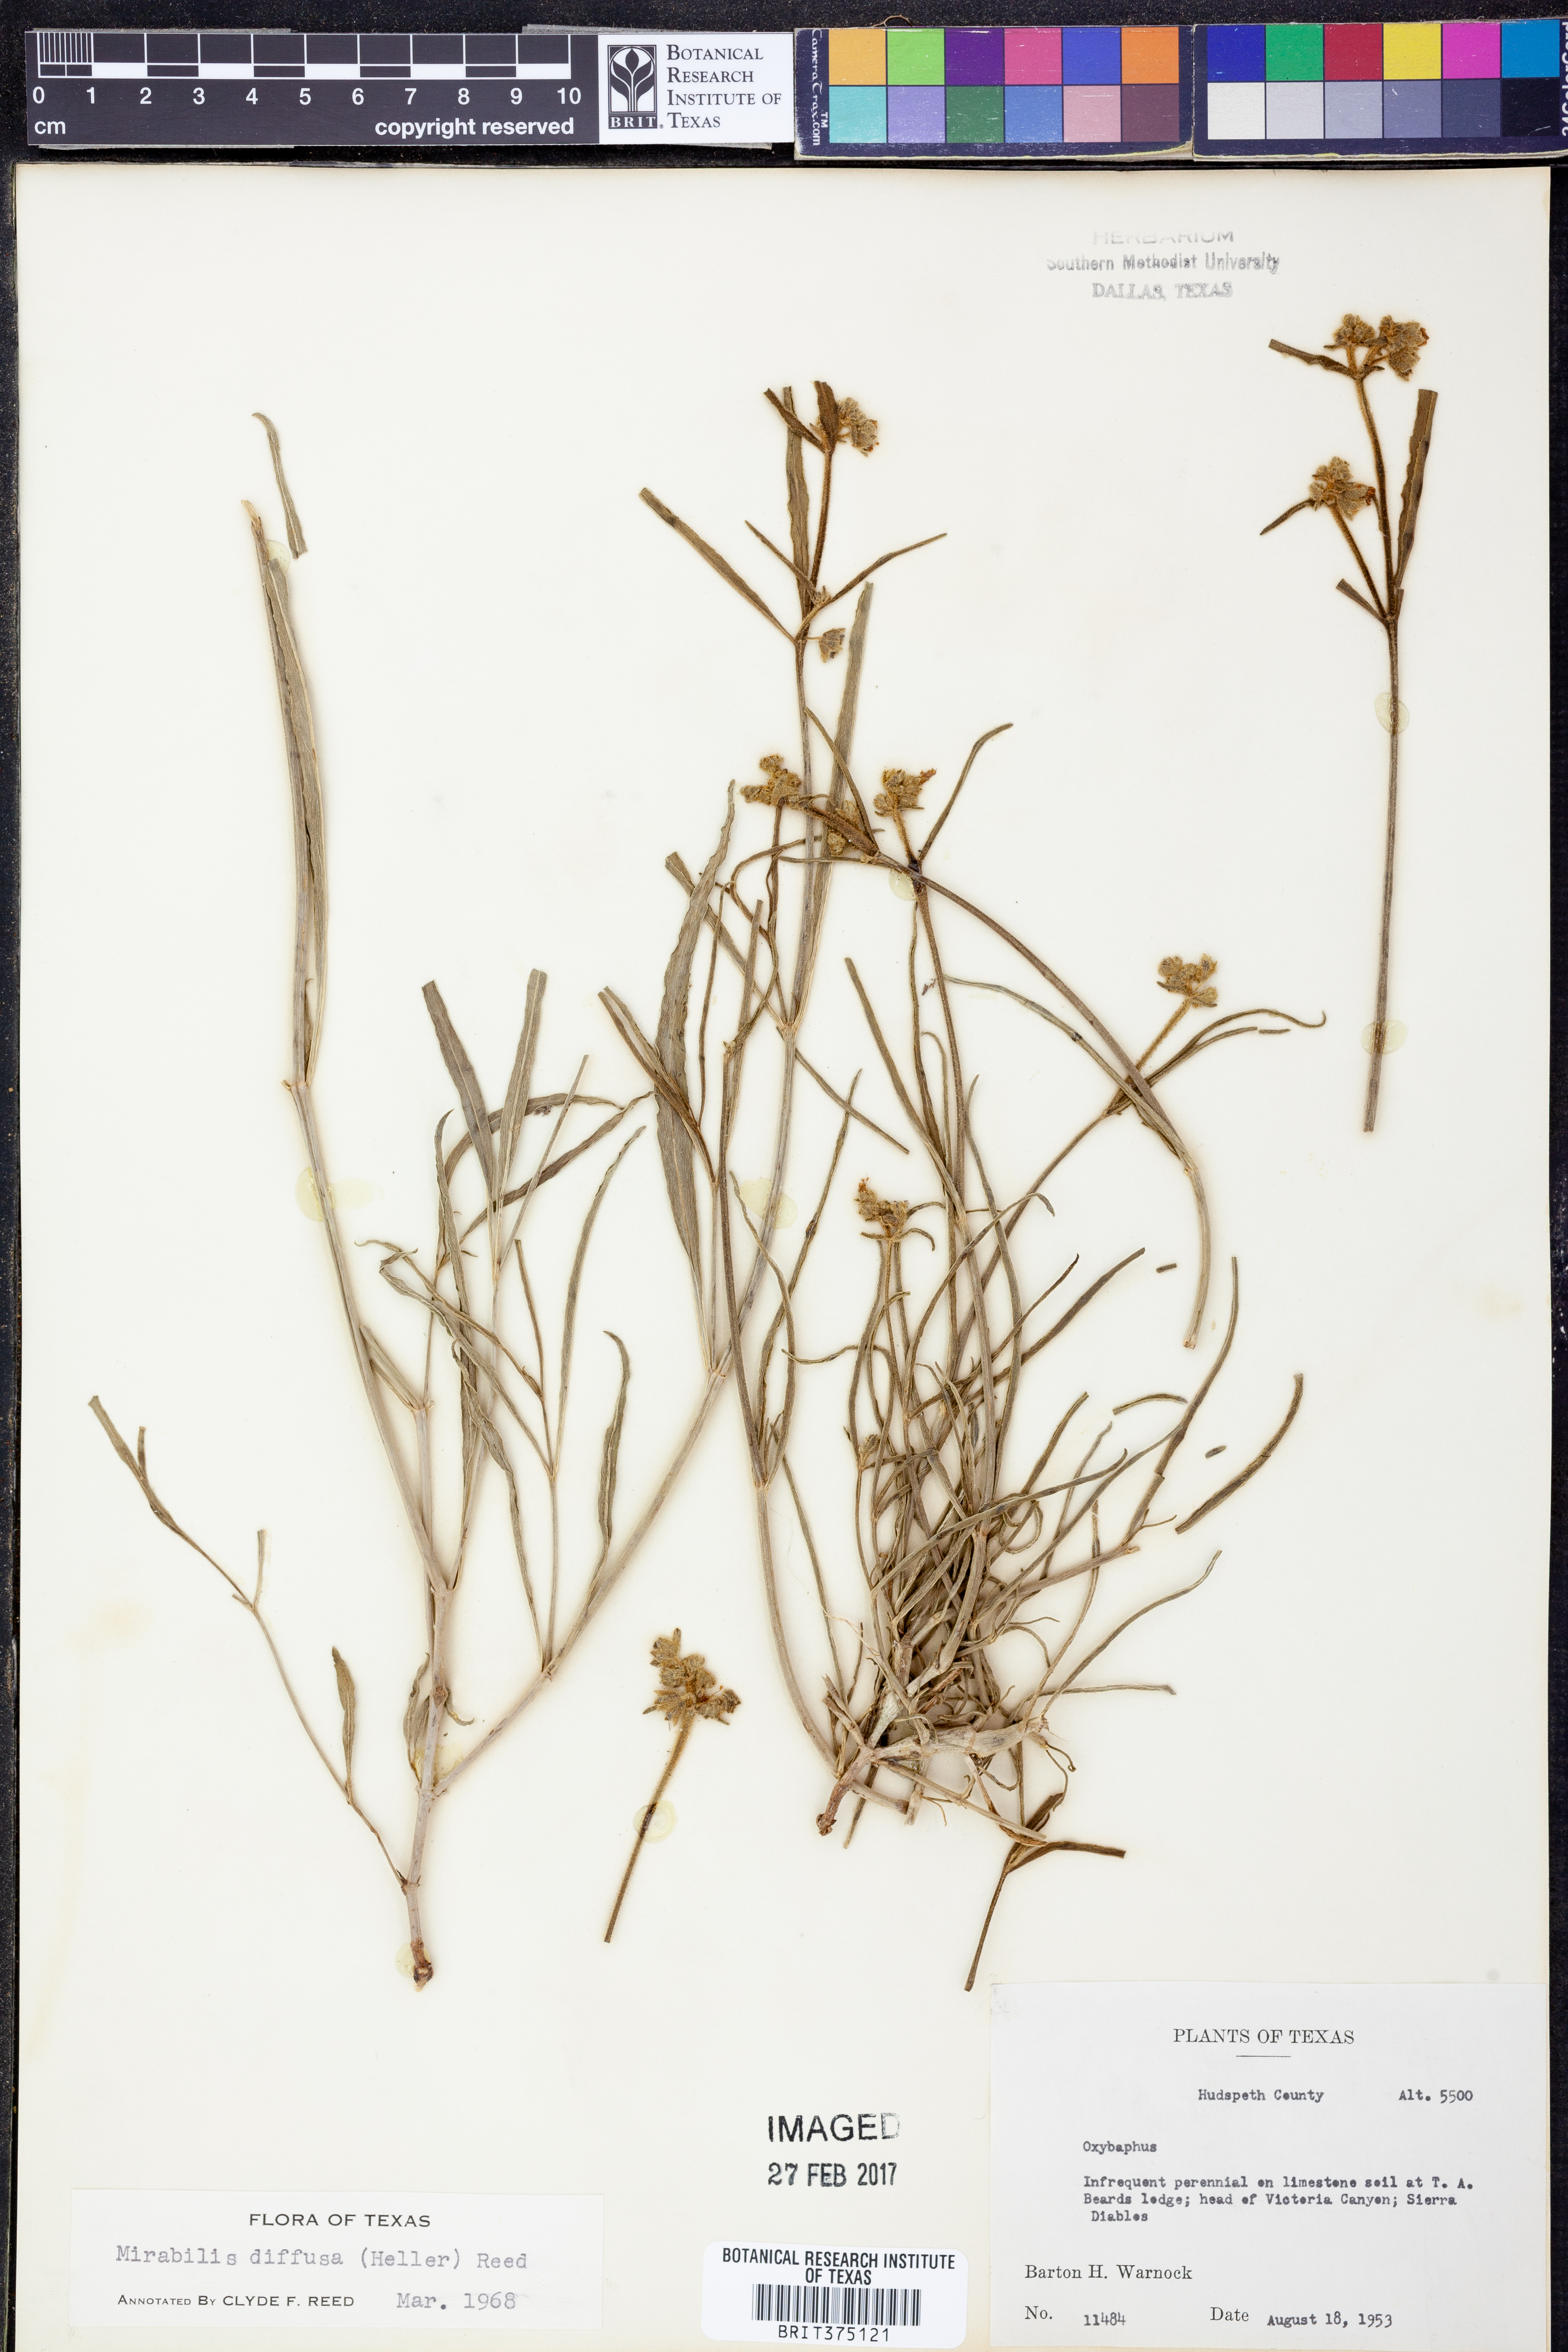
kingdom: Plantae
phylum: Tracheophyta
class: Magnoliopsida
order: Caryophyllales
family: Nyctaginaceae
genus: Mirabilis
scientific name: Mirabilis linearis
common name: Linear-leaved four-o'clock
